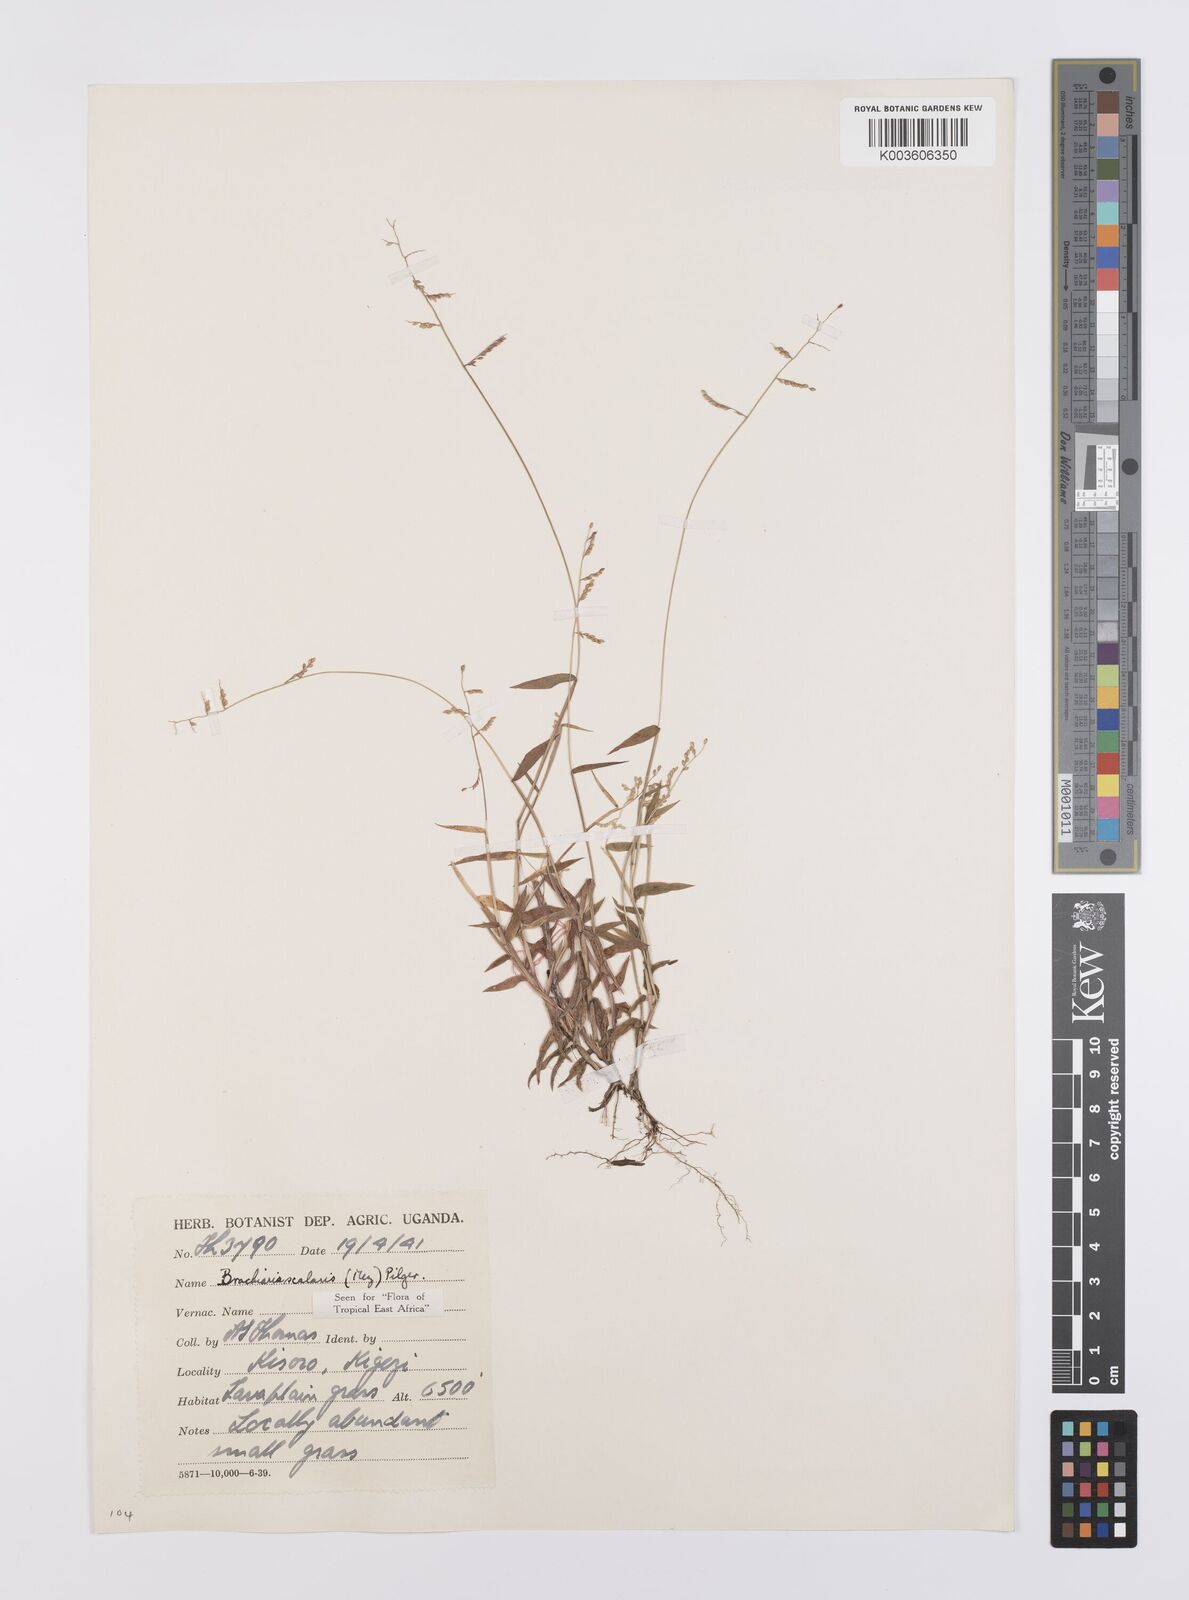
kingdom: Plantae
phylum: Tracheophyta
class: Liliopsida
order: Poales
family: Poaceae
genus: Urochloa
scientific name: Urochloa comata
